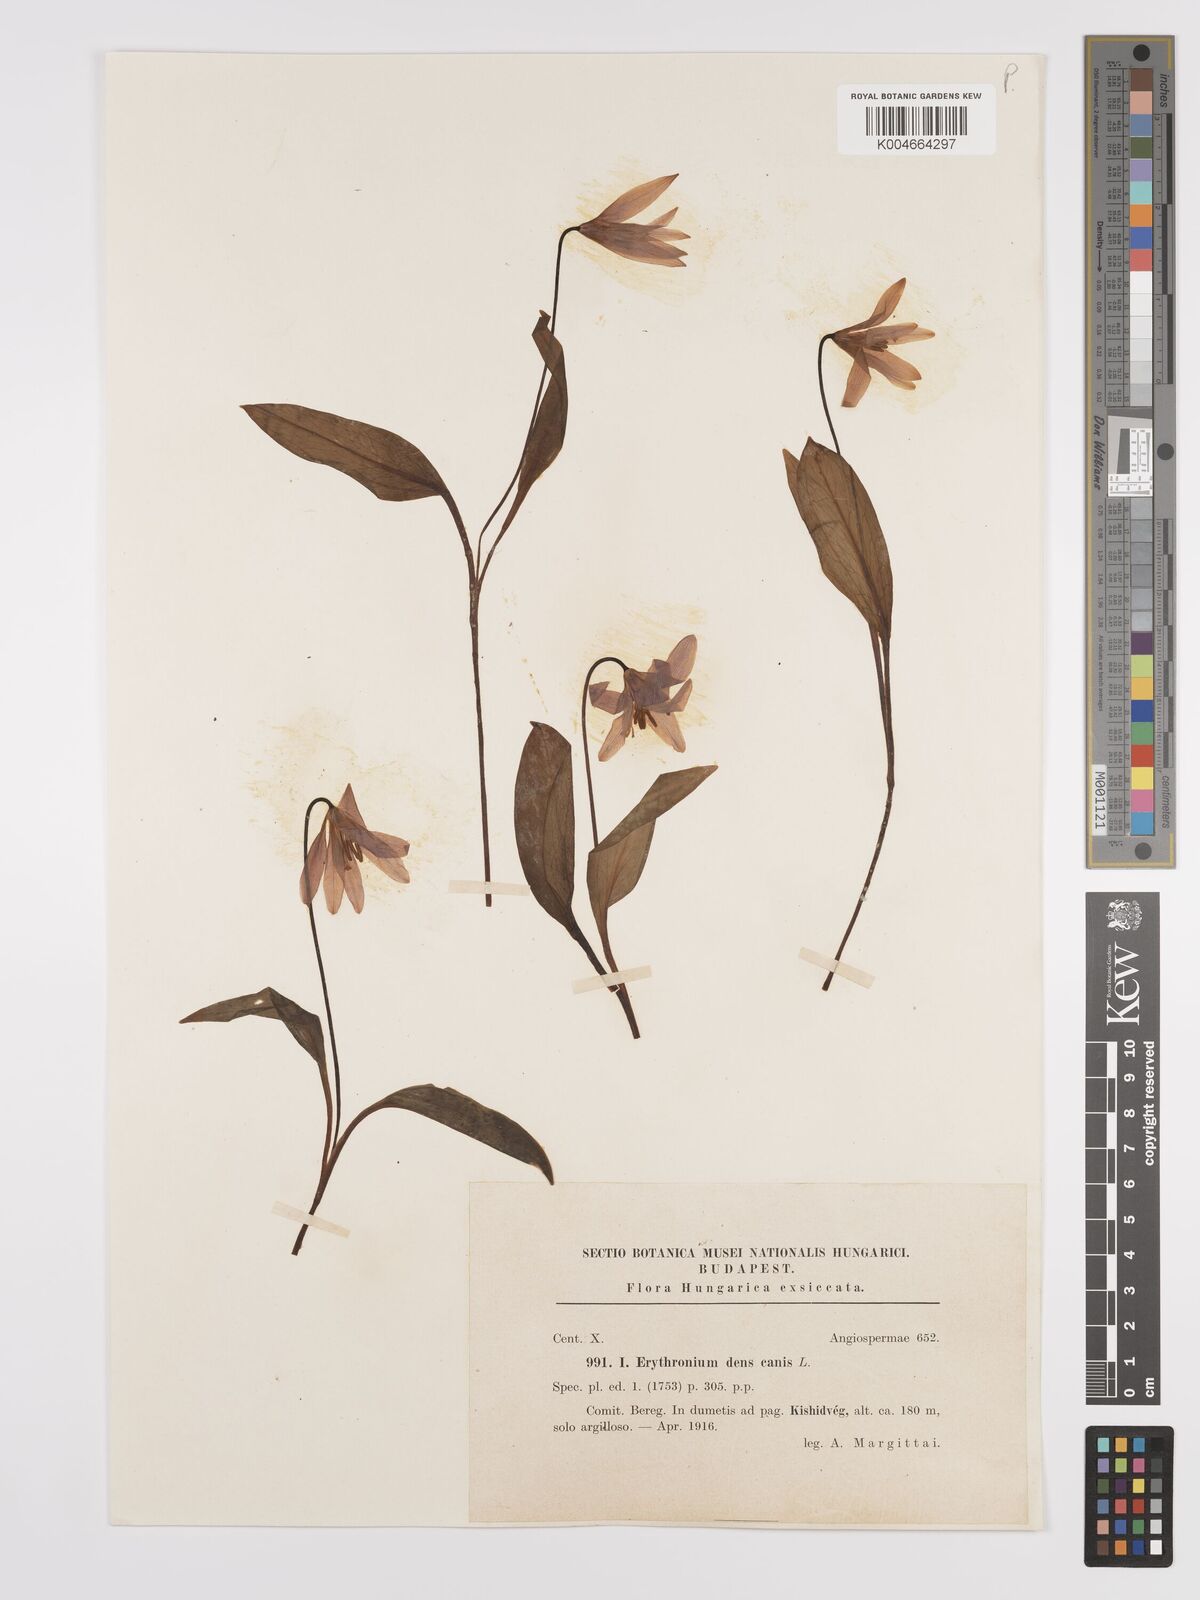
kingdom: Plantae
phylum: Tracheophyta
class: Liliopsida
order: Liliales
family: Liliaceae
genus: Erythronium
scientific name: Erythronium dens-canis
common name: Dog's-tooth-violet
